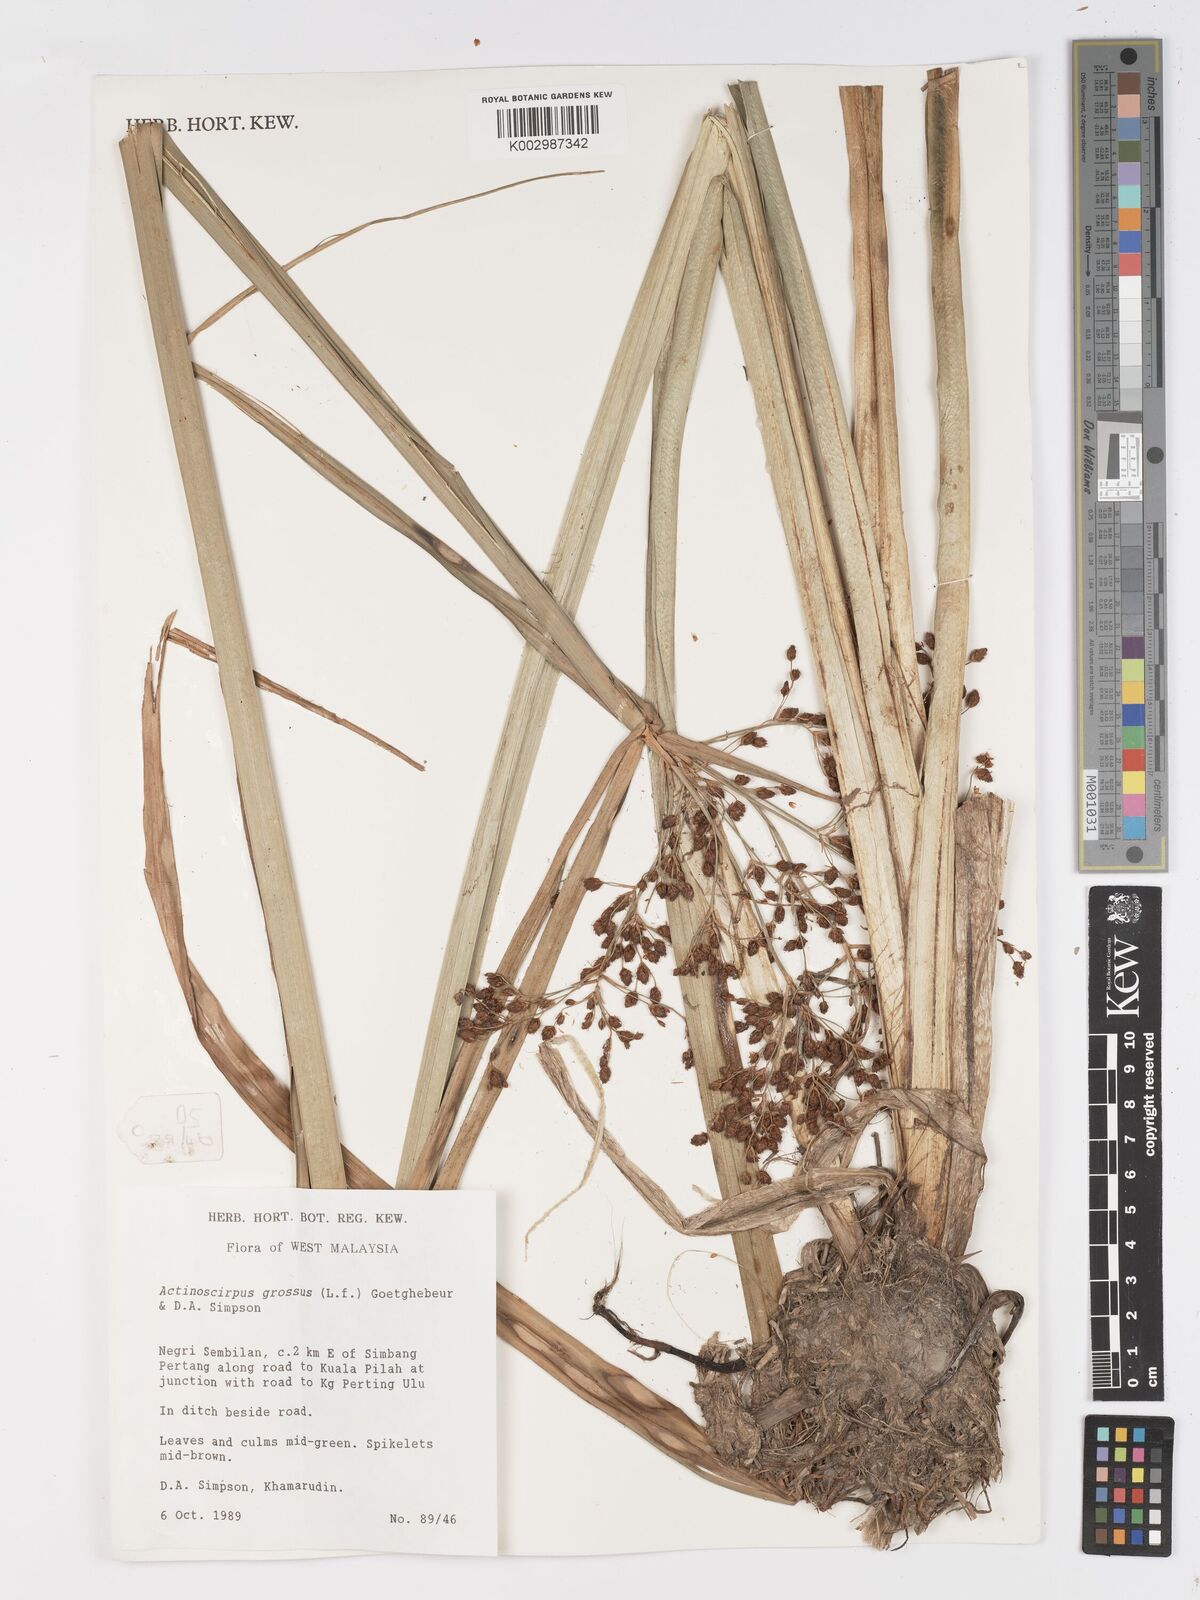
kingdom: Plantae
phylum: Tracheophyta
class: Liliopsida
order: Poales
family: Cyperaceae
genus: Actinoscirpus
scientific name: Actinoscirpus grossus
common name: Giant bur rush
